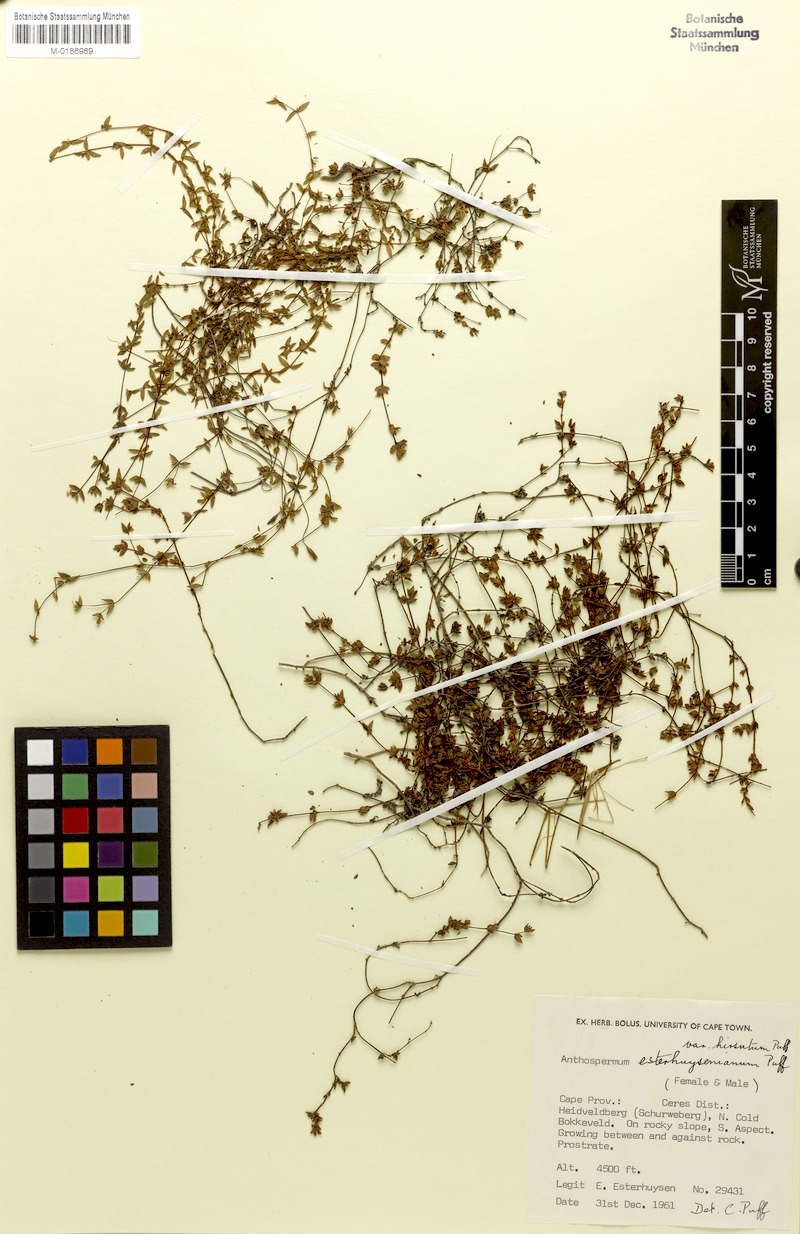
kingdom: Plantae
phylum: Tracheophyta
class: Magnoliopsida
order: Gentianales
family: Rubiaceae
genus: Anthospermum
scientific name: Anthospermum esterhuysenianum
